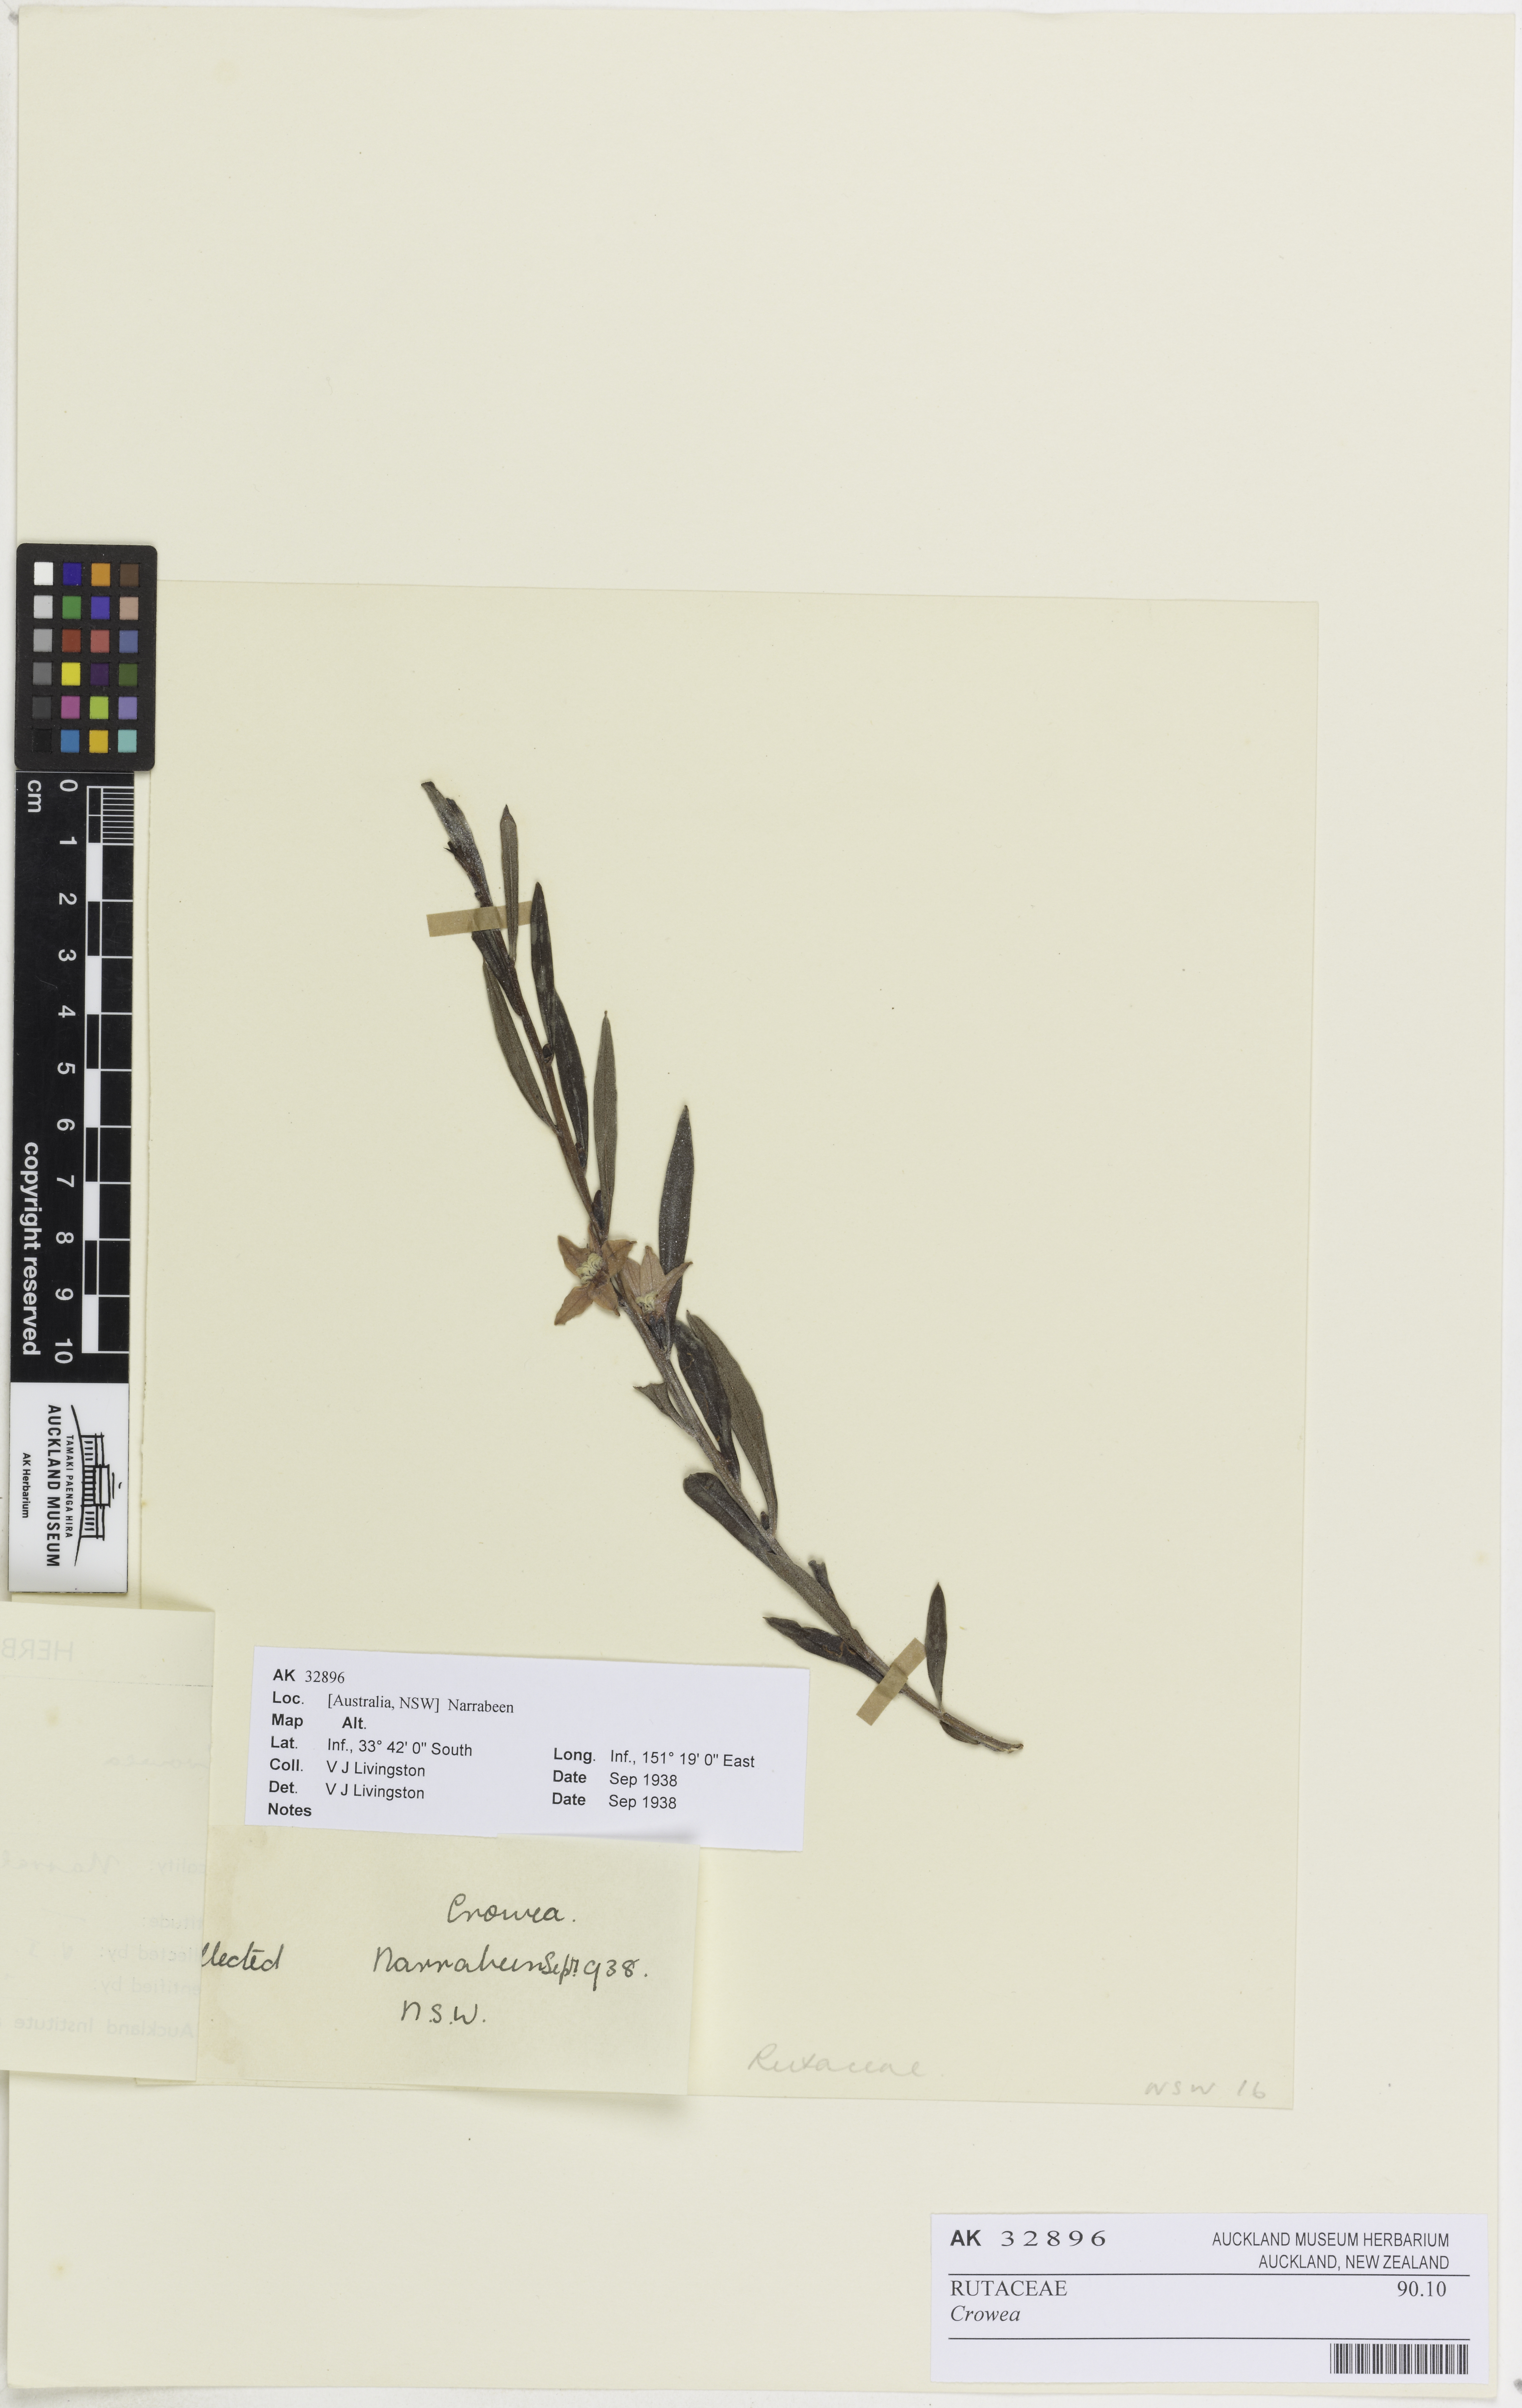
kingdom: Plantae
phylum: Tracheophyta
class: Magnoliopsida
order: Sapindales
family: Rutaceae
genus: Crowea
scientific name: Crowea
